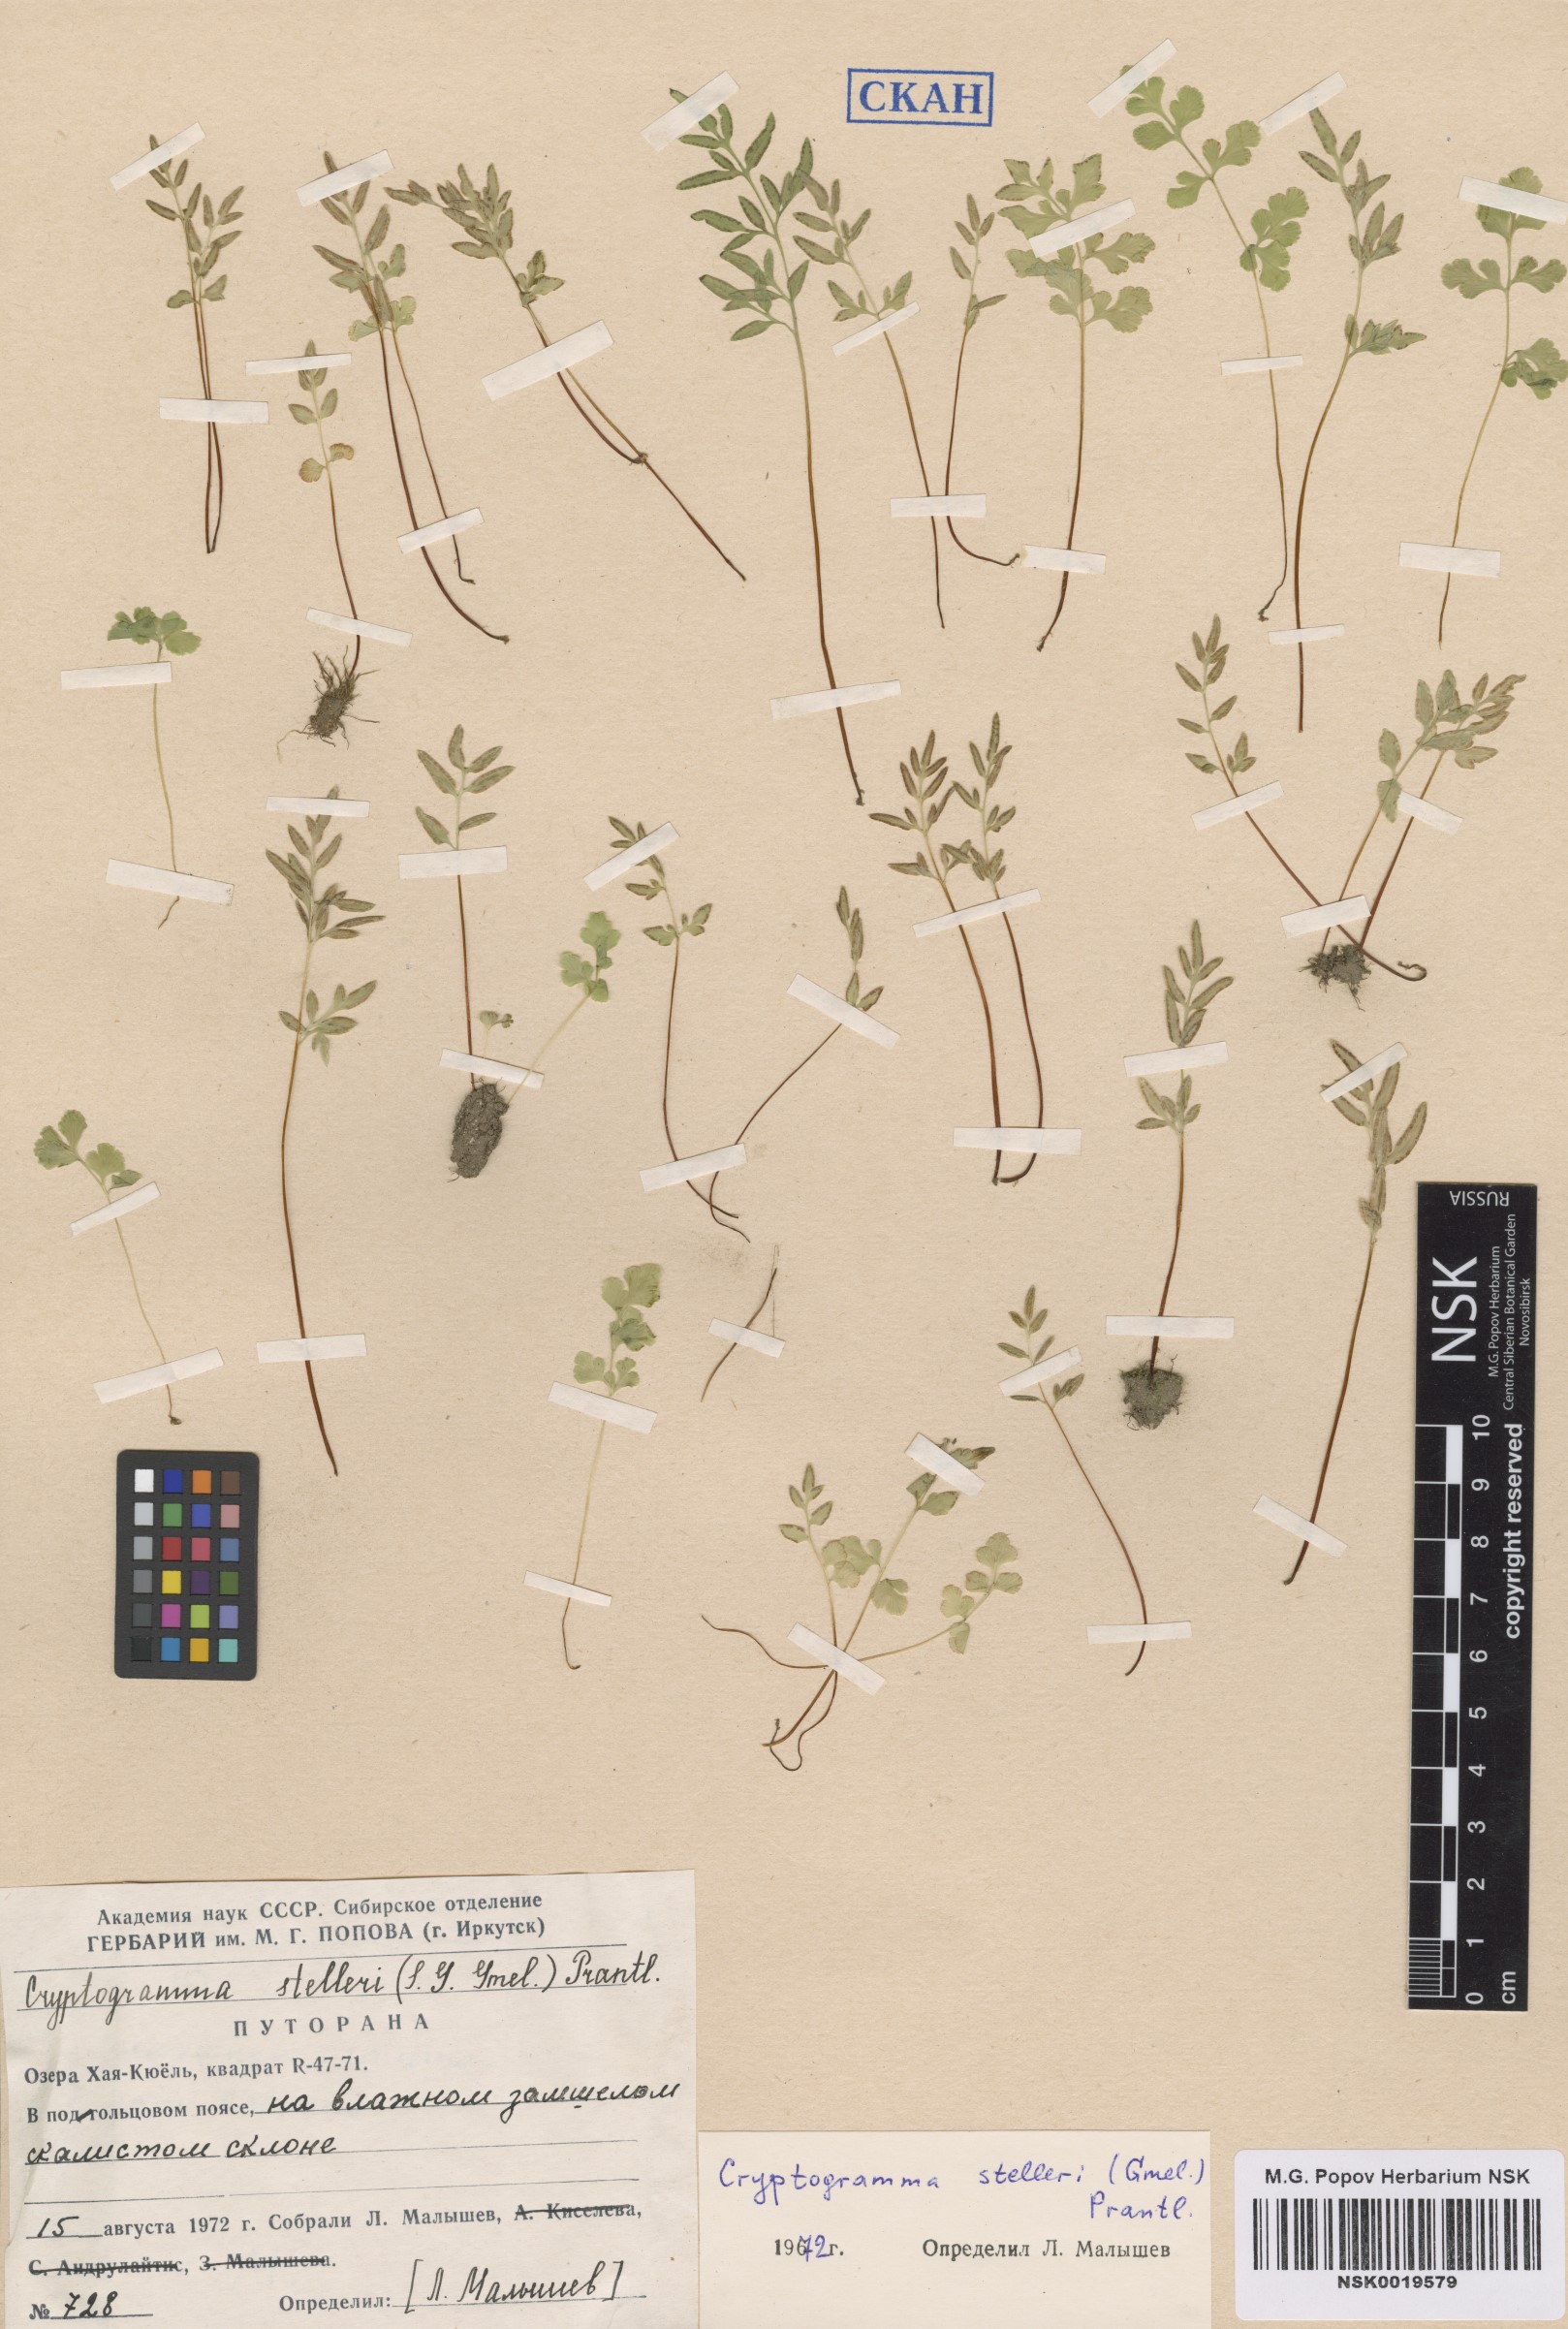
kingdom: Plantae
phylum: Tracheophyta
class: Polypodiopsida
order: Polypodiales
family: Pteridaceae
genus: Cryptogramma
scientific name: Cryptogramma stelleri
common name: Cliff-brake
